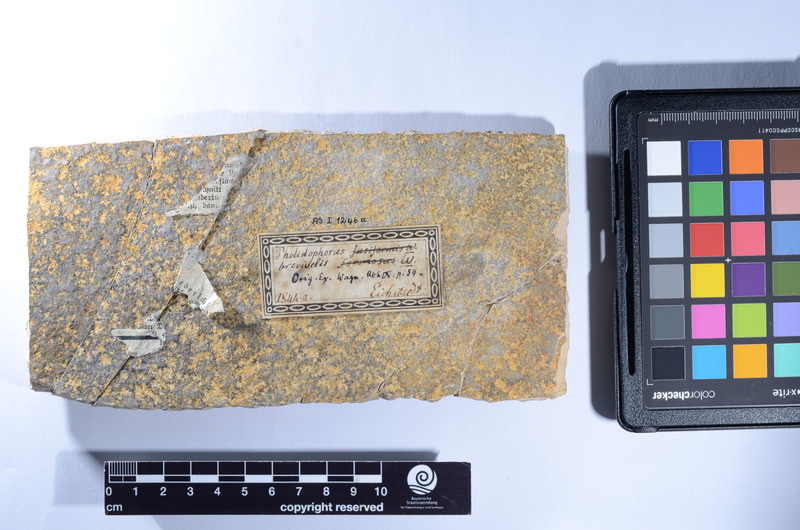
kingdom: Animalia
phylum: Chordata
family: Ophiopsiellidae
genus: Furo
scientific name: Furo longiserratus
